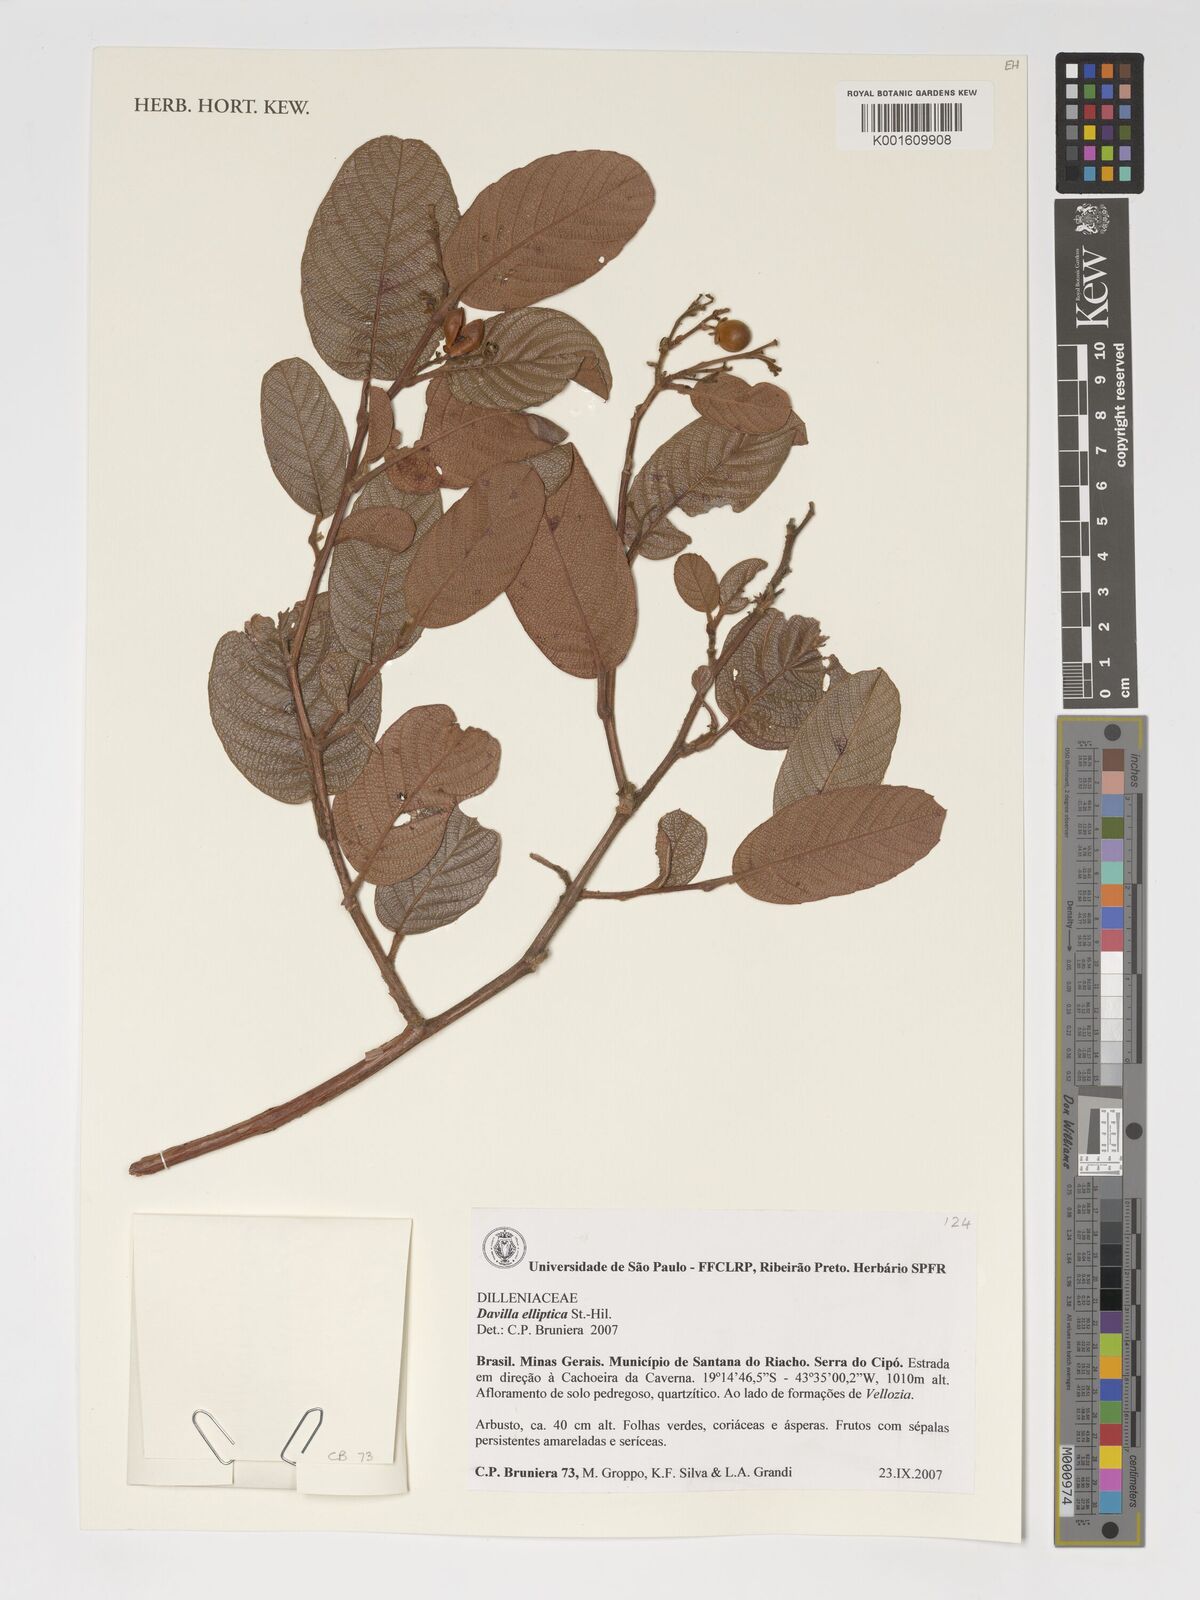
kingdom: Plantae
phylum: Tracheophyta
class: Magnoliopsida
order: Dilleniales
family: Dilleniaceae
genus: Davilla
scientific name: Davilla elliptica
